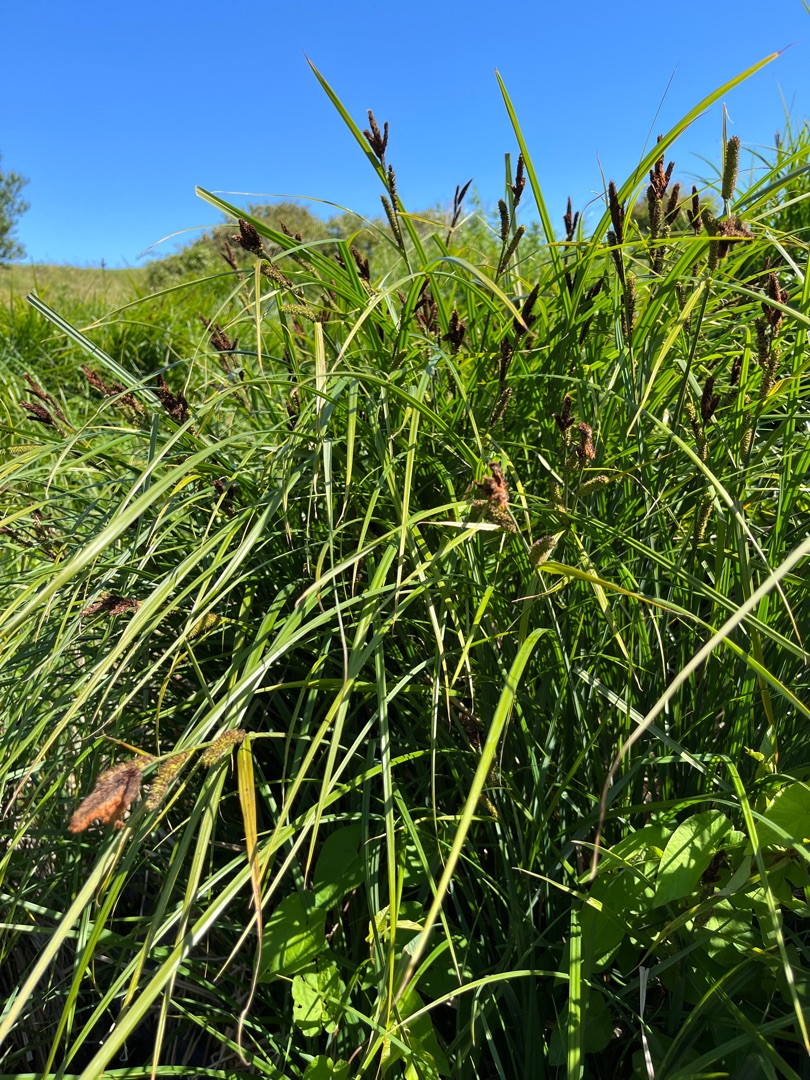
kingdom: Plantae
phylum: Tracheophyta
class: Liliopsida
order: Poales
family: Cyperaceae
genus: Carex
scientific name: Carex acutiformis
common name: Kær-star
